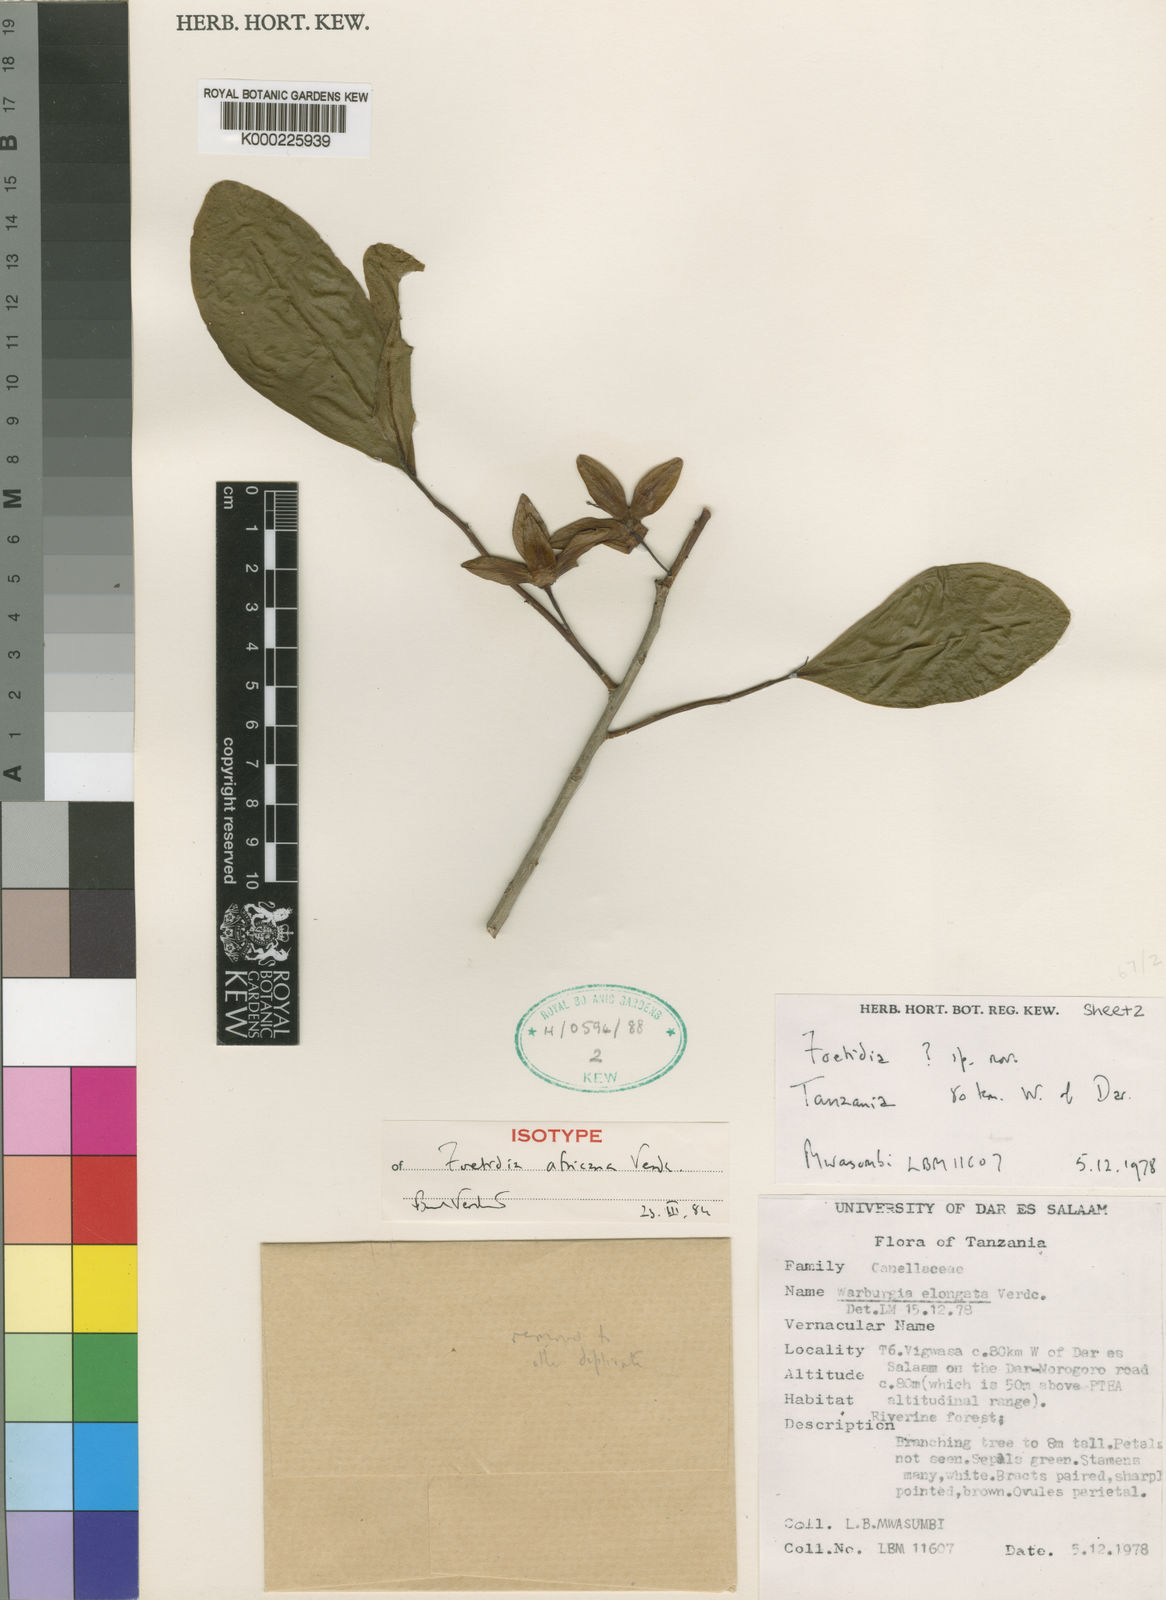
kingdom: Plantae
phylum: Tracheophyta
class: Magnoliopsida
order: Ericales
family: Lecythidaceae
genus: Foetidia
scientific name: Foetidia africana
